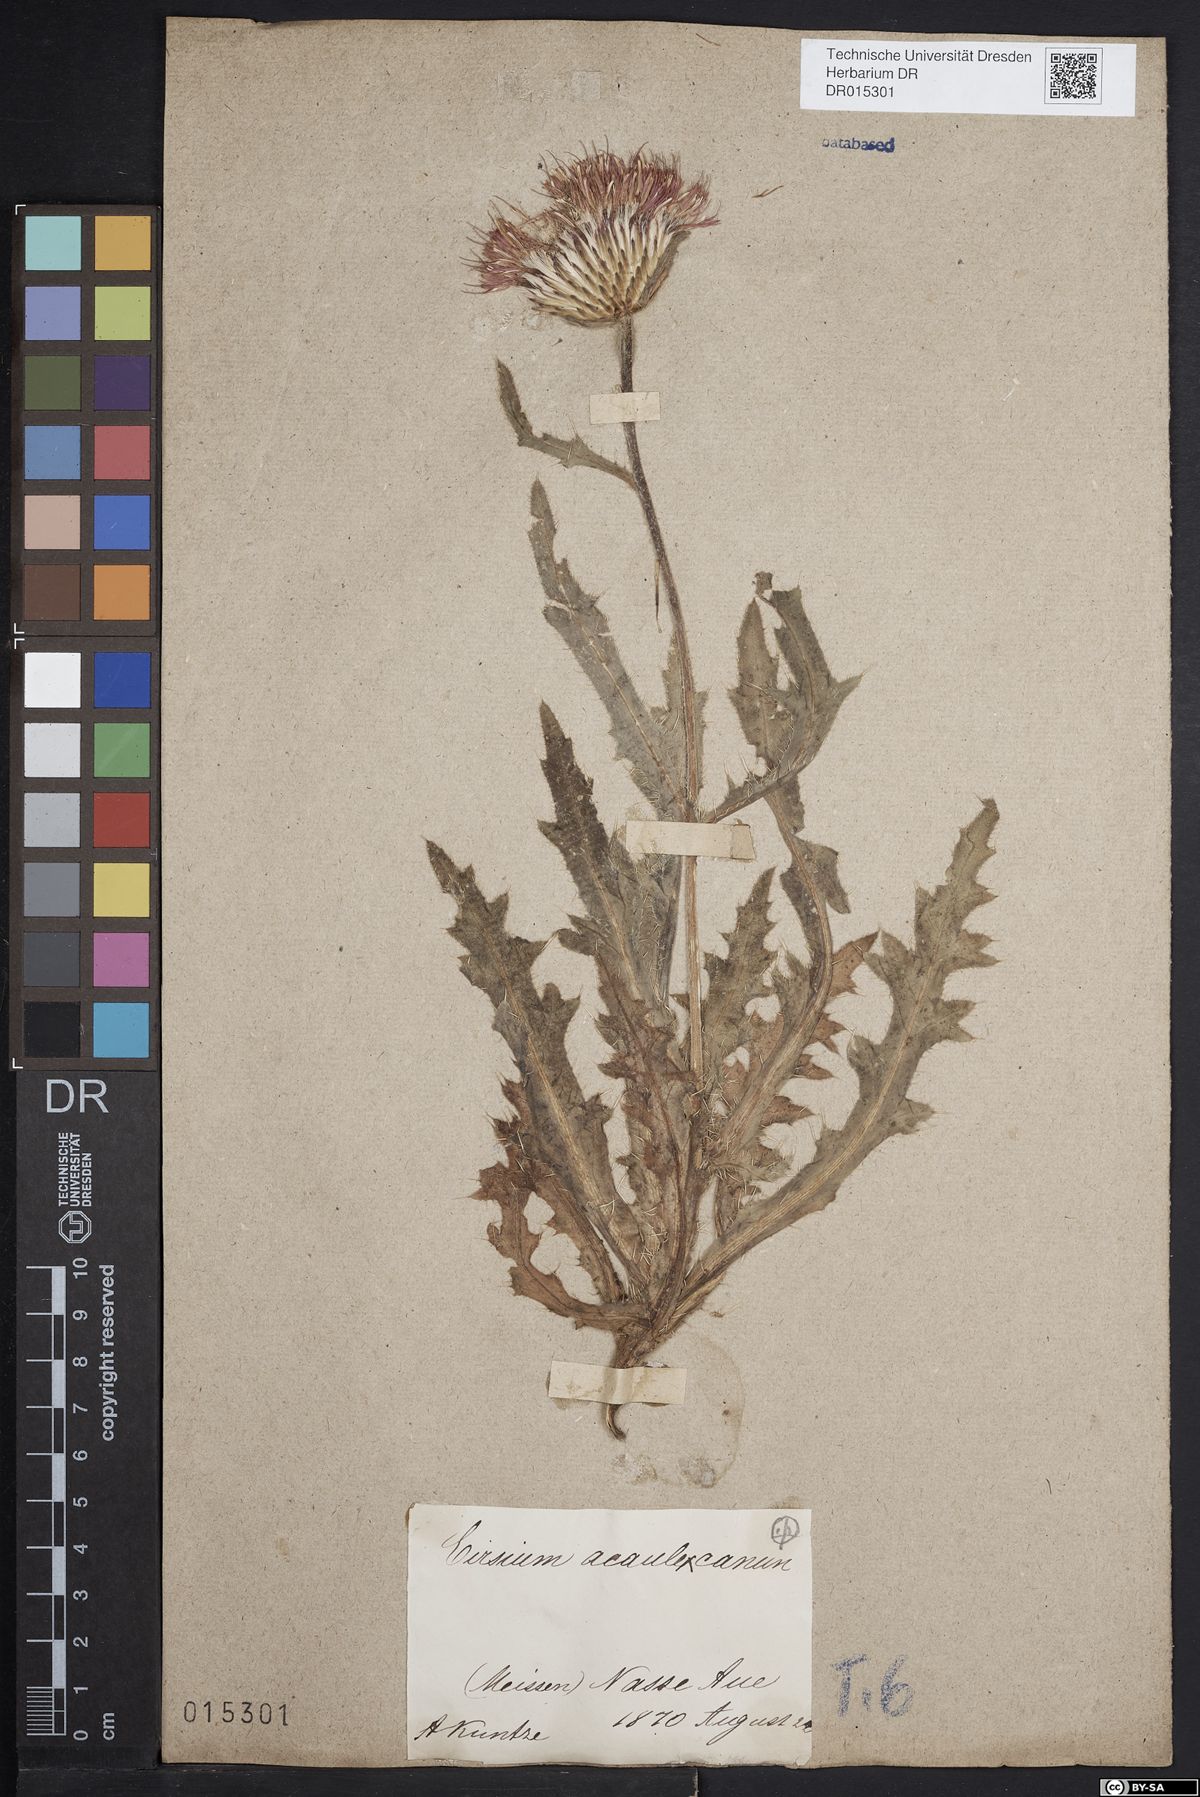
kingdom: Plantae
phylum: Tracheophyta
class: Magnoliopsida
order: Asterales
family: Asteraceae
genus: Cirsium
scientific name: Cirsium winklerianum
